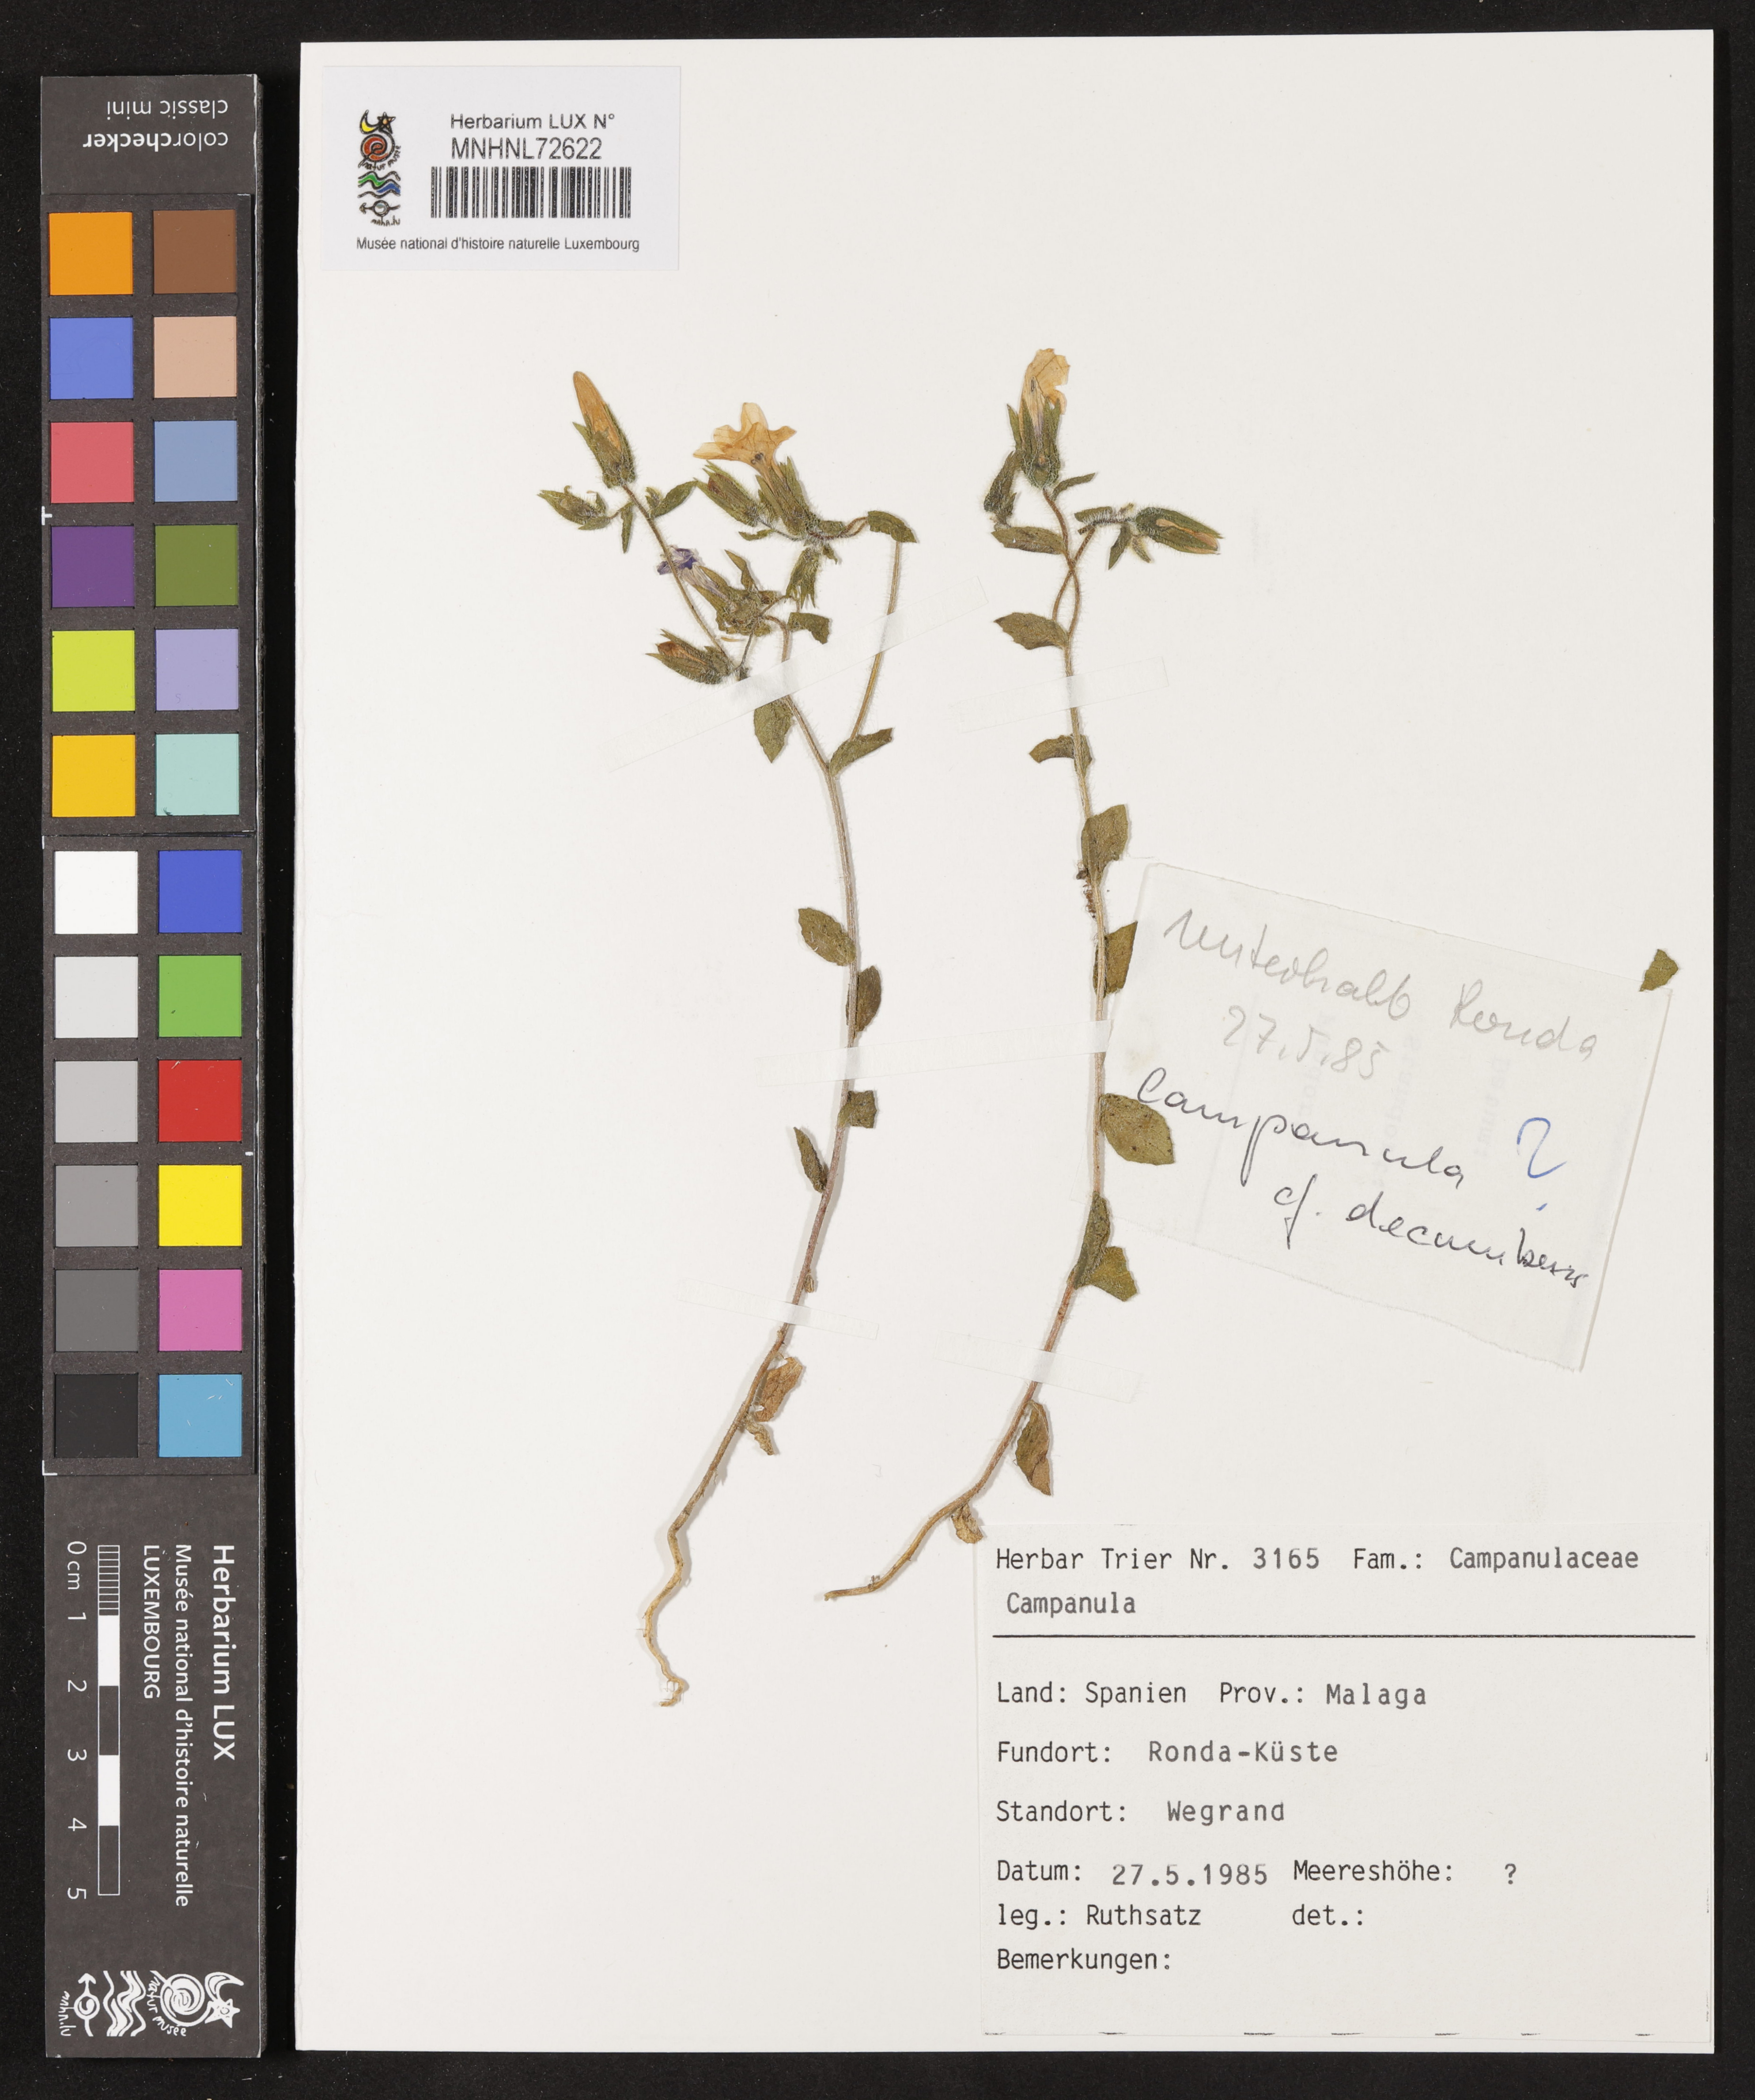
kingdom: Plantae
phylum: Tracheophyta
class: Magnoliopsida
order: Asterales
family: Campanulaceae
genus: Campanula
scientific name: Campanula
